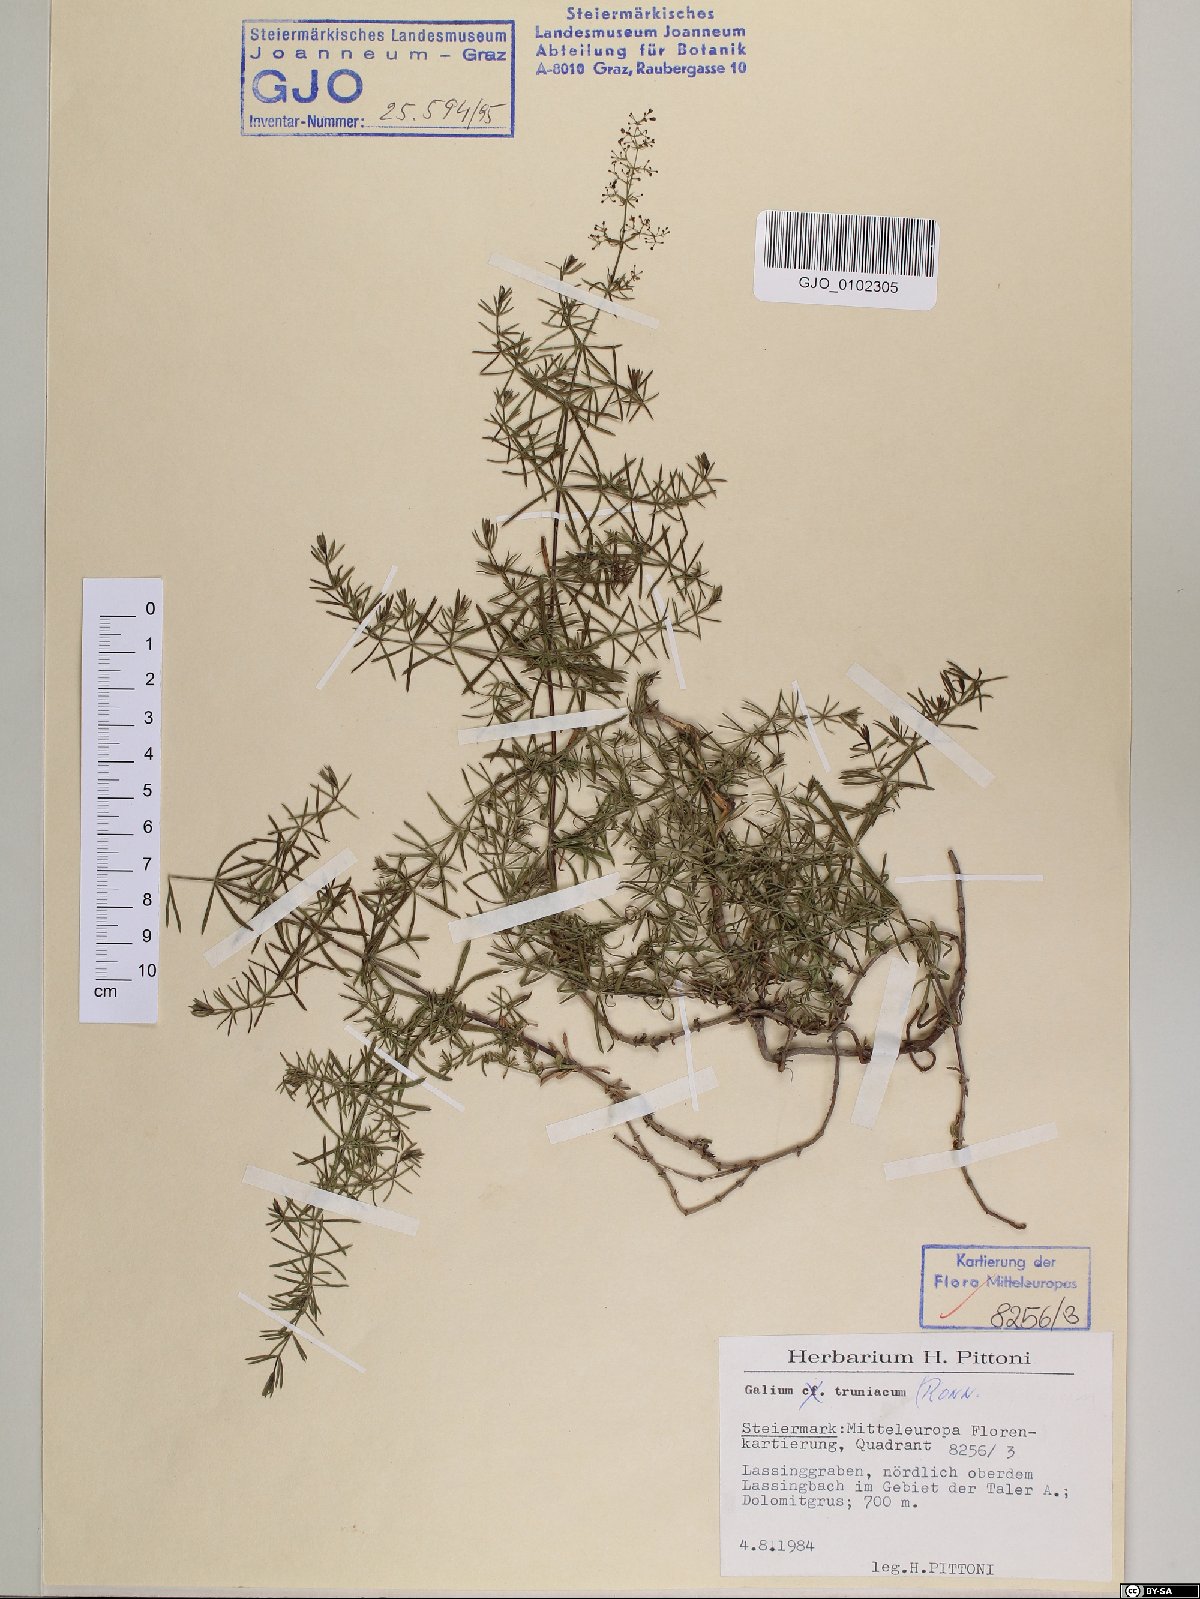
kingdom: Plantae
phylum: Tracheophyta
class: Magnoliopsida
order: Gentianales
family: Rubiaceae
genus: Galium
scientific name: Galium truniacum
